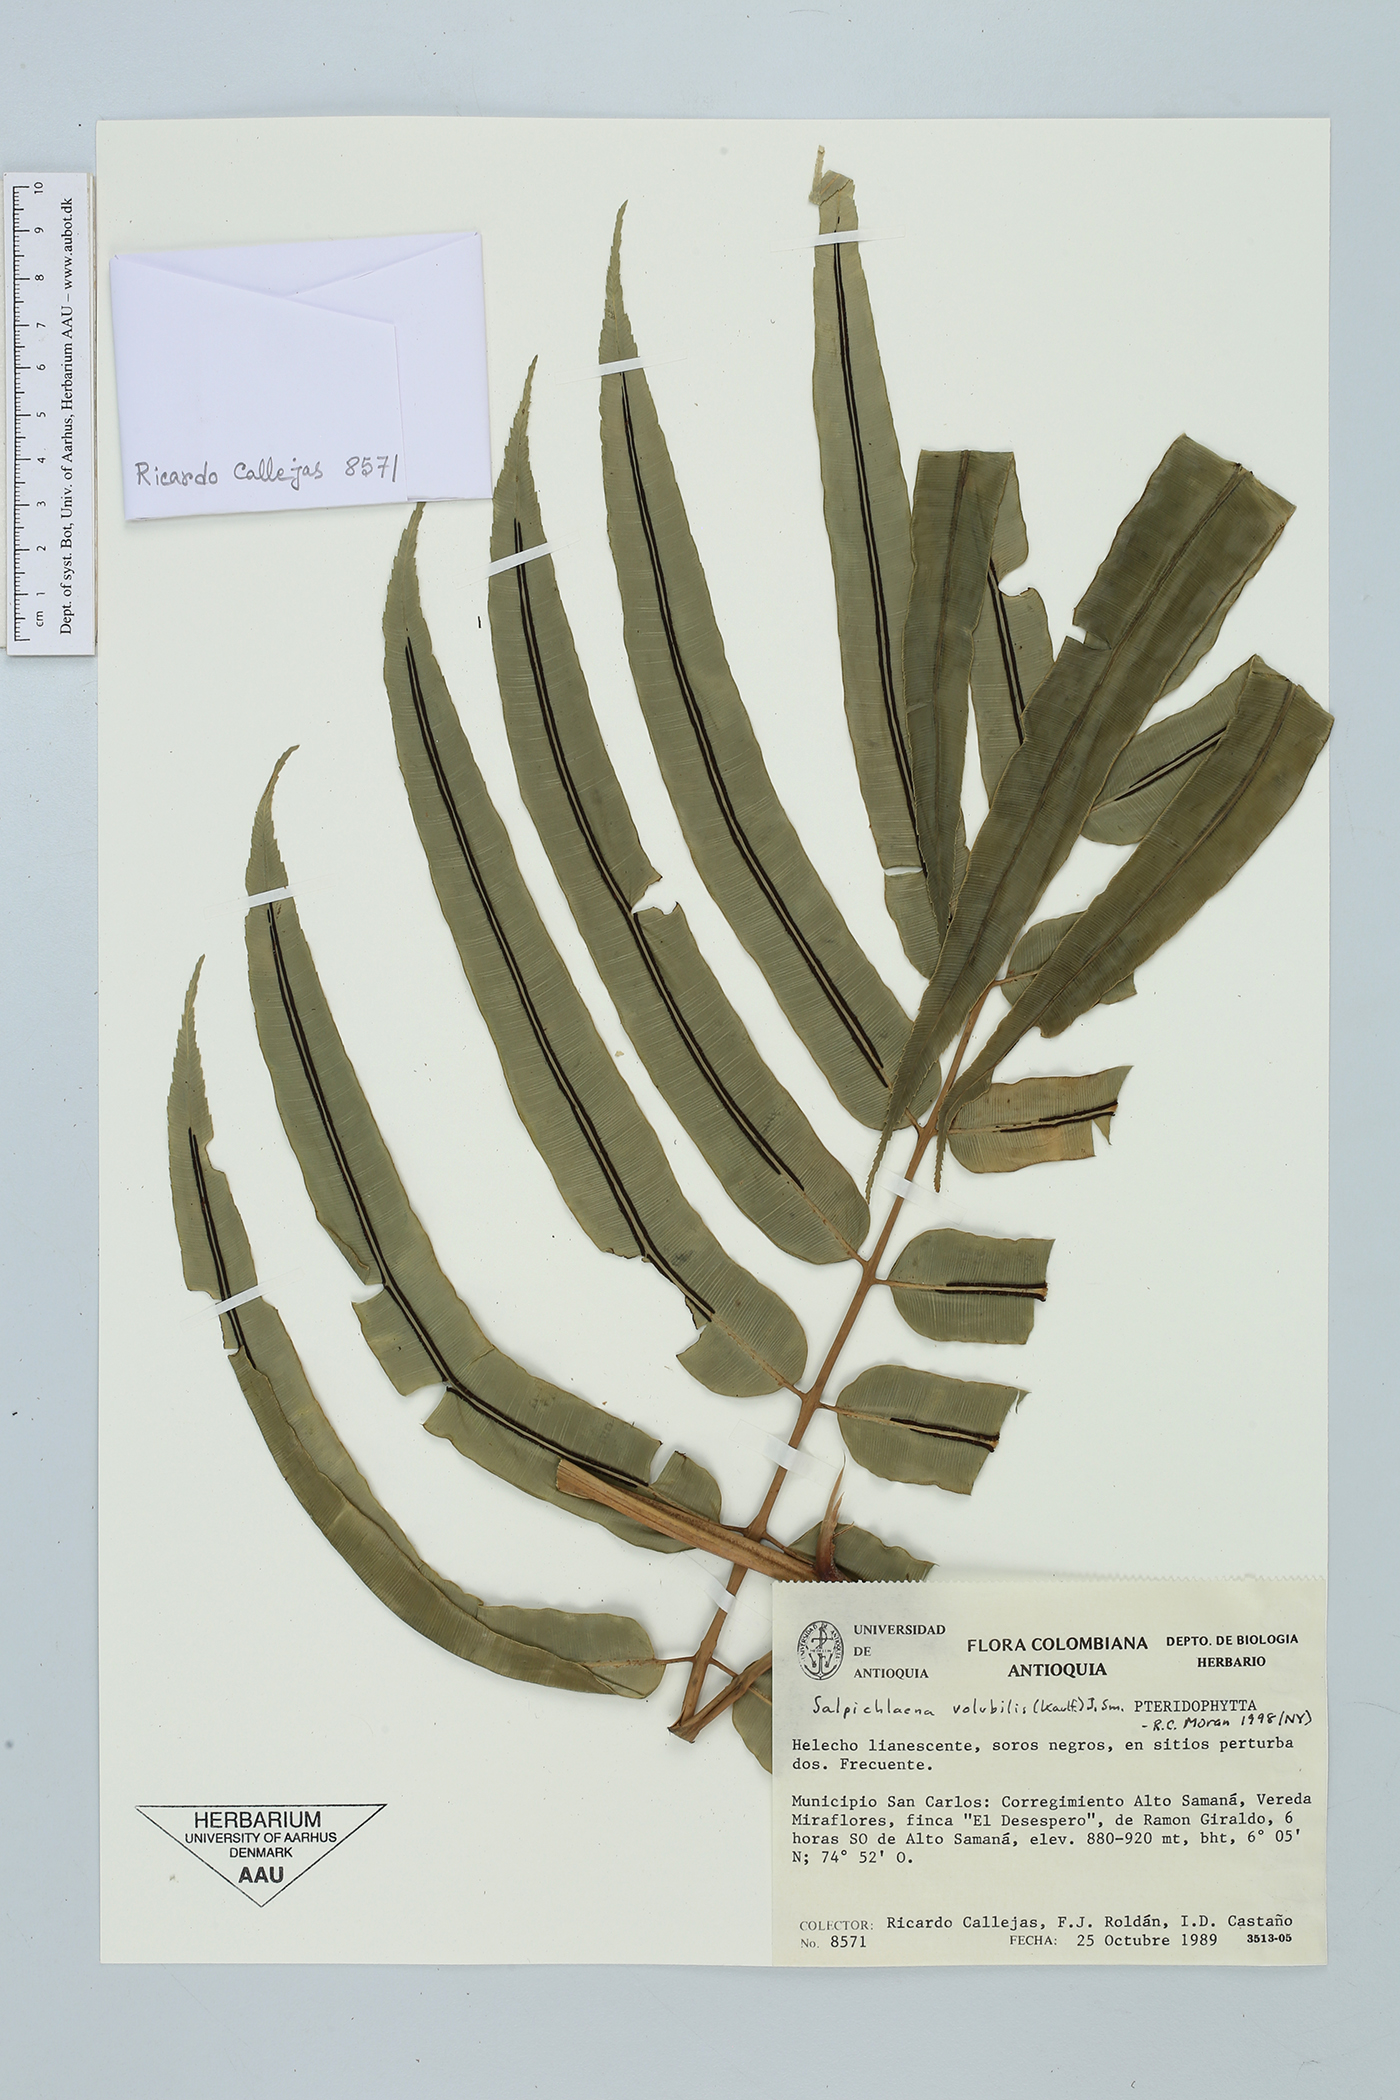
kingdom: Plantae
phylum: Tracheophyta
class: Polypodiopsida
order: Polypodiales
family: Blechnaceae
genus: Salpichlaena
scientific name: Salpichlaena volubilis
